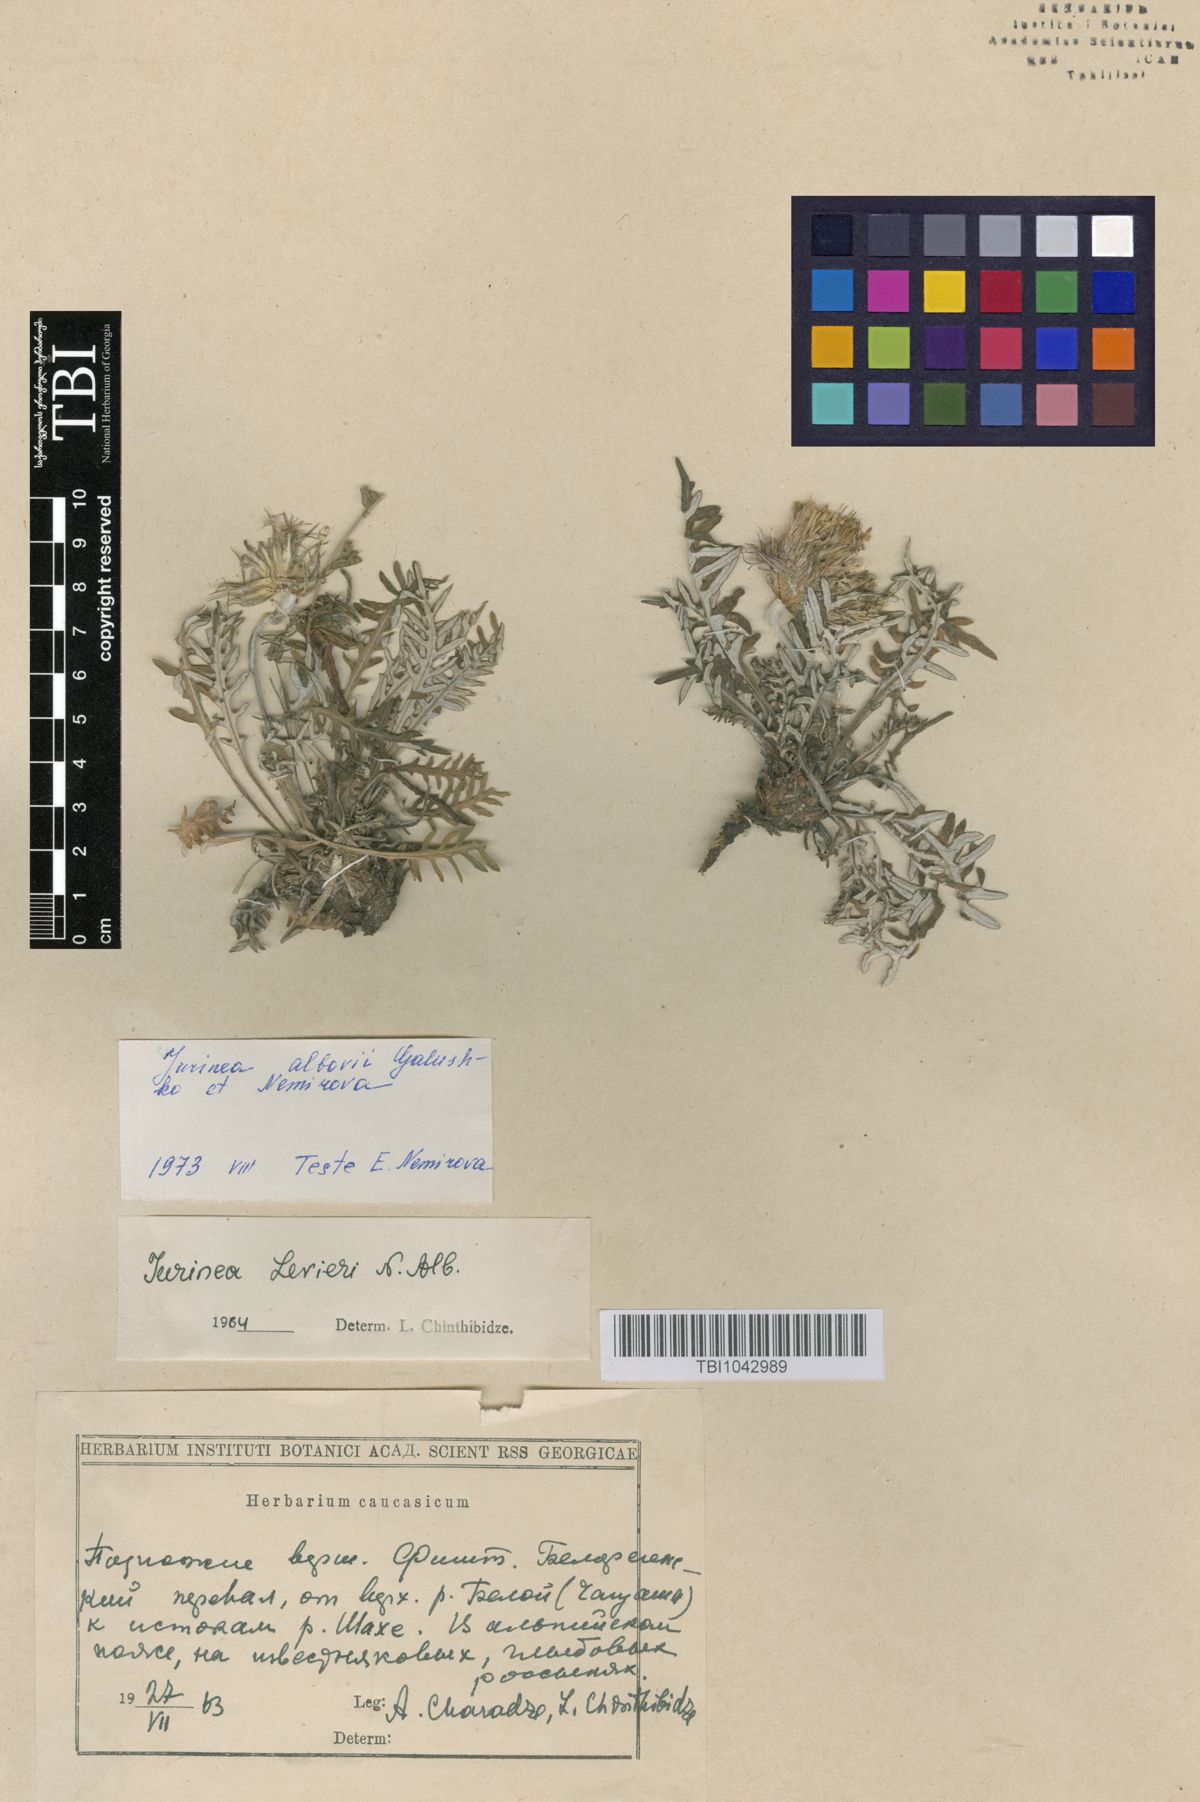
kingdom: Plantae
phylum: Tracheophyta
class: Magnoliopsida
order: Asterales
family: Asteraceae
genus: Jurinea
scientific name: Jurinea
